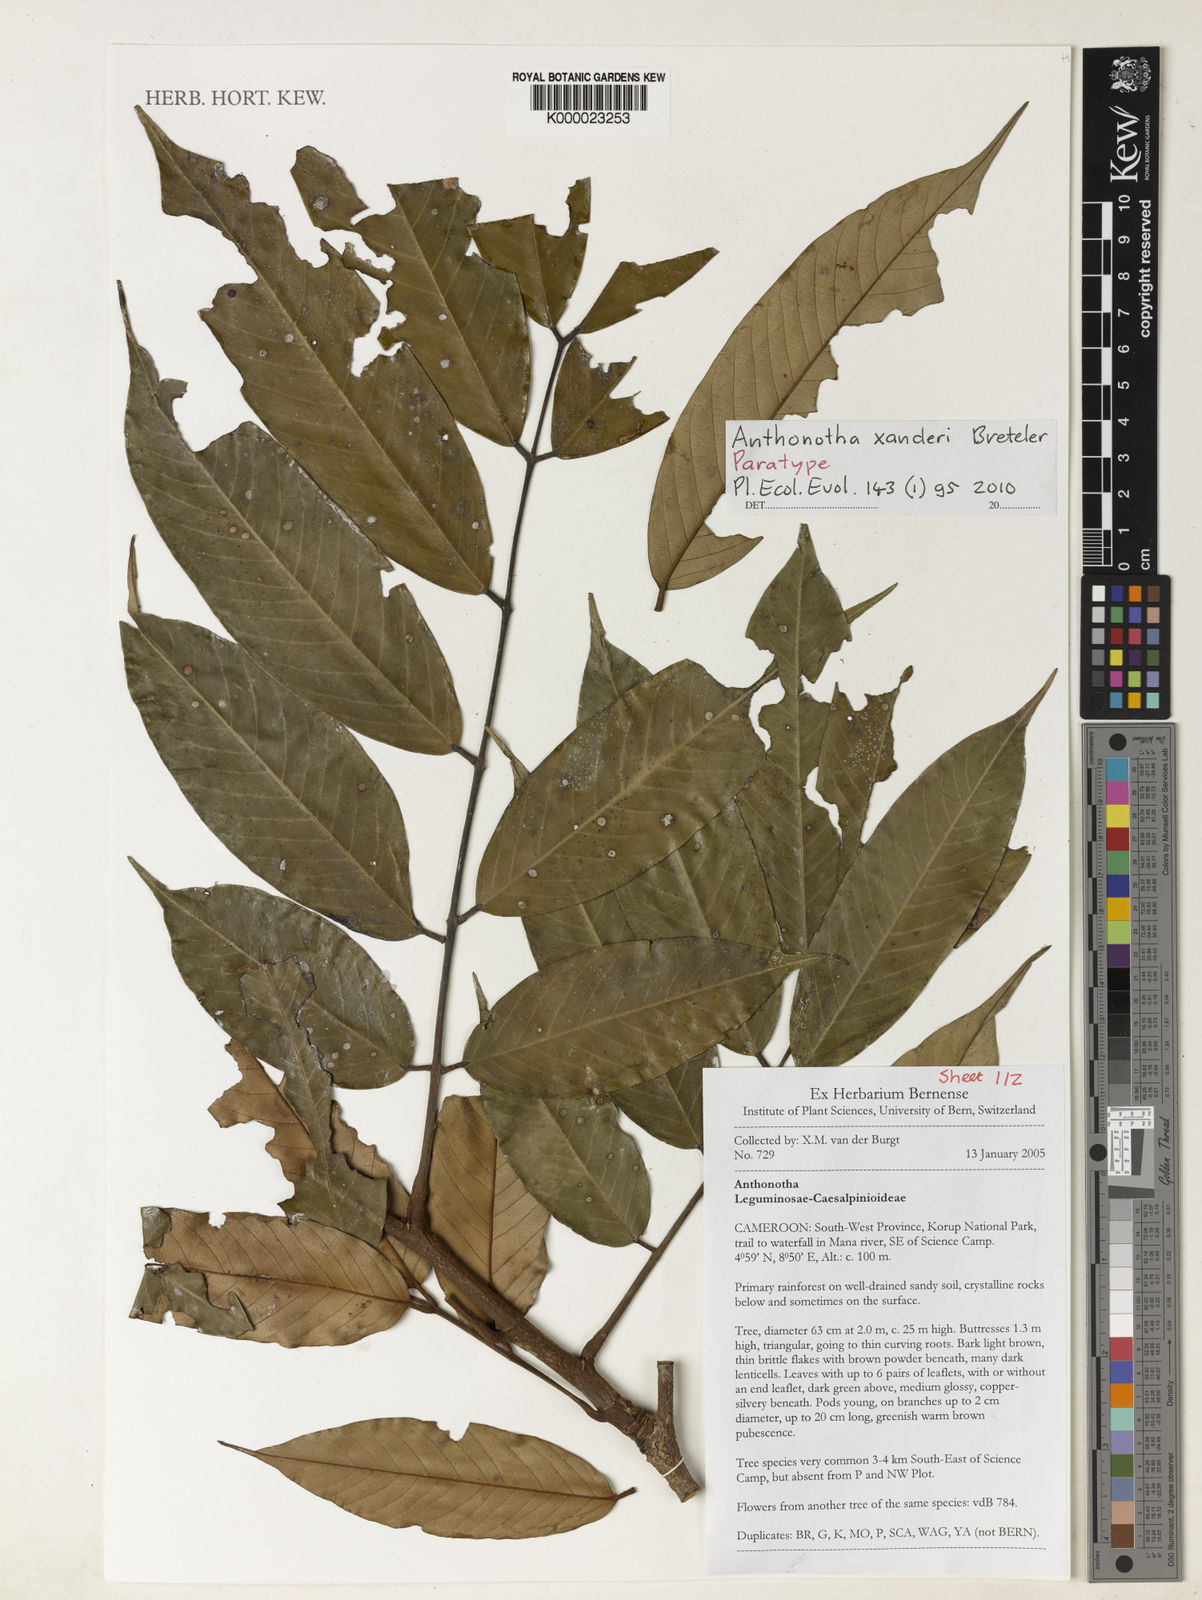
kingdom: Plantae
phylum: Tracheophyta
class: Magnoliopsida
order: Fabales
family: Fabaceae
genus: Anthonotha
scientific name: Anthonotha xanderi
